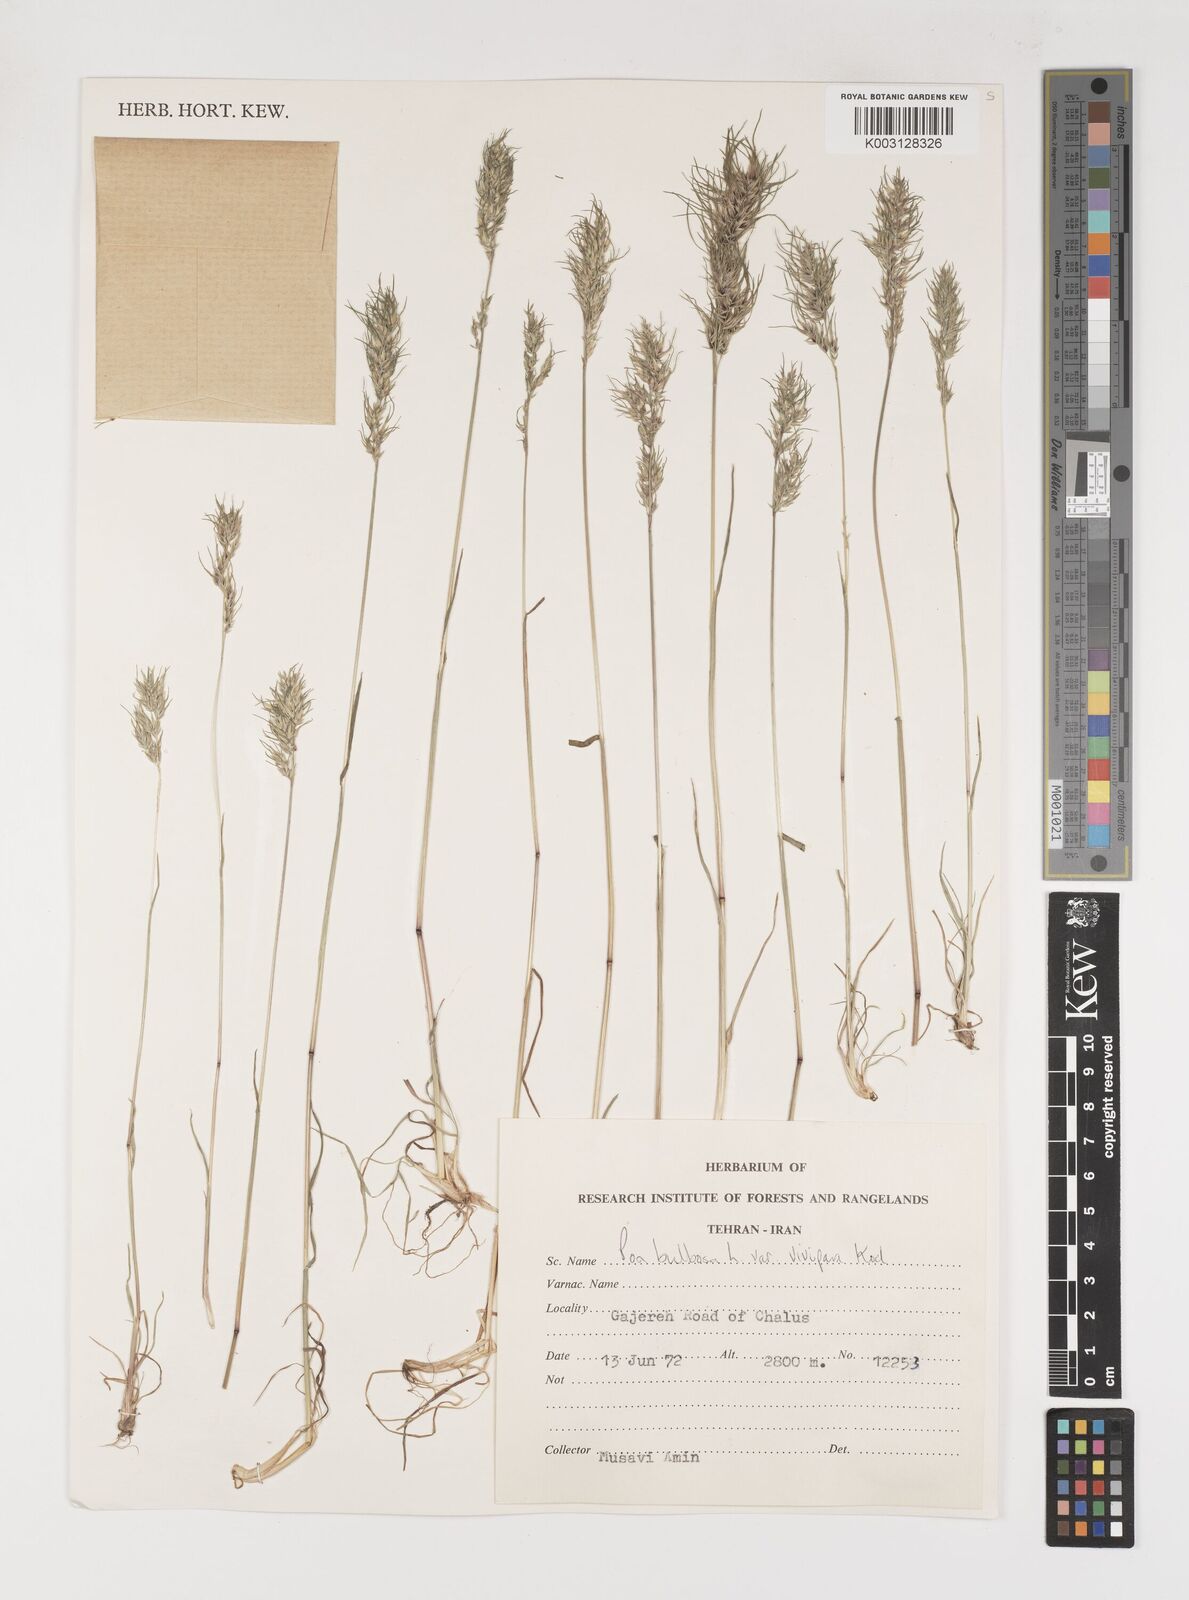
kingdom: Plantae
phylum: Tracheophyta
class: Liliopsida
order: Poales
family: Poaceae
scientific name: Poaceae
